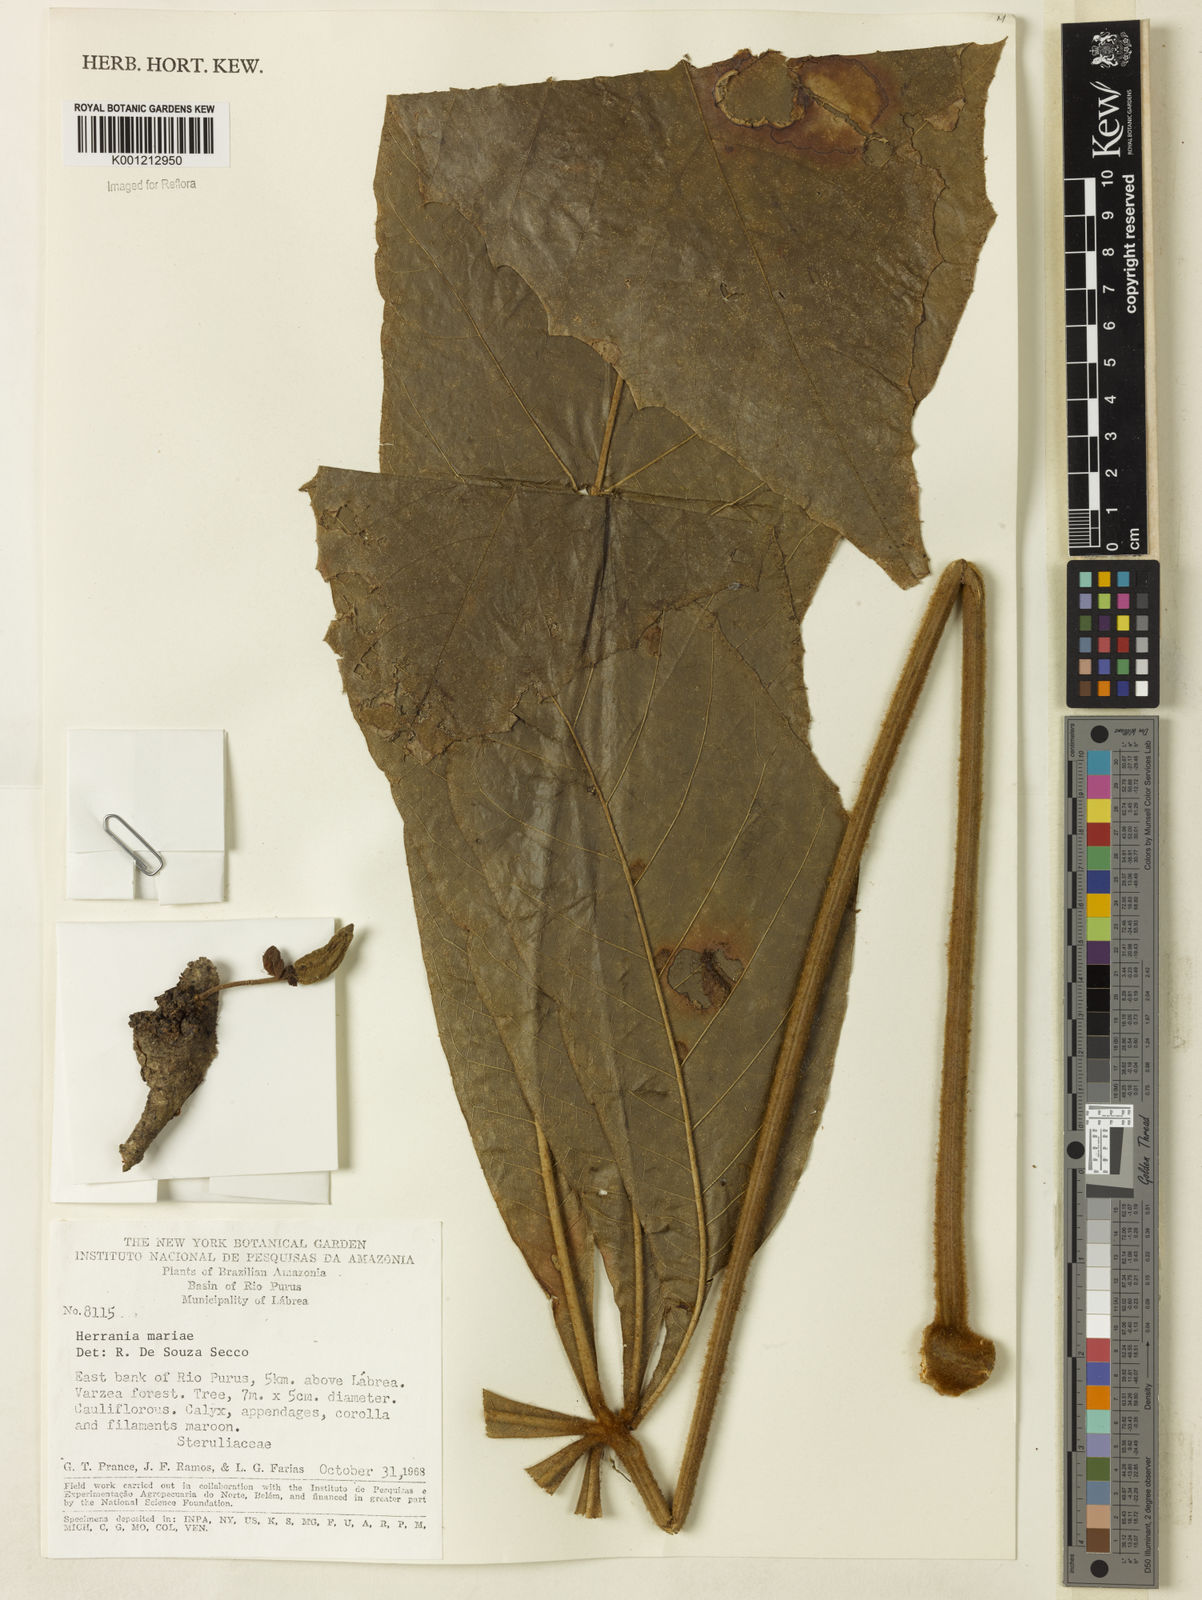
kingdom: Plantae
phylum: Tracheophyta
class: Magnoliopsida
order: Malvales
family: Malvaceae
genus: Herrania
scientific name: Herrania nitida
